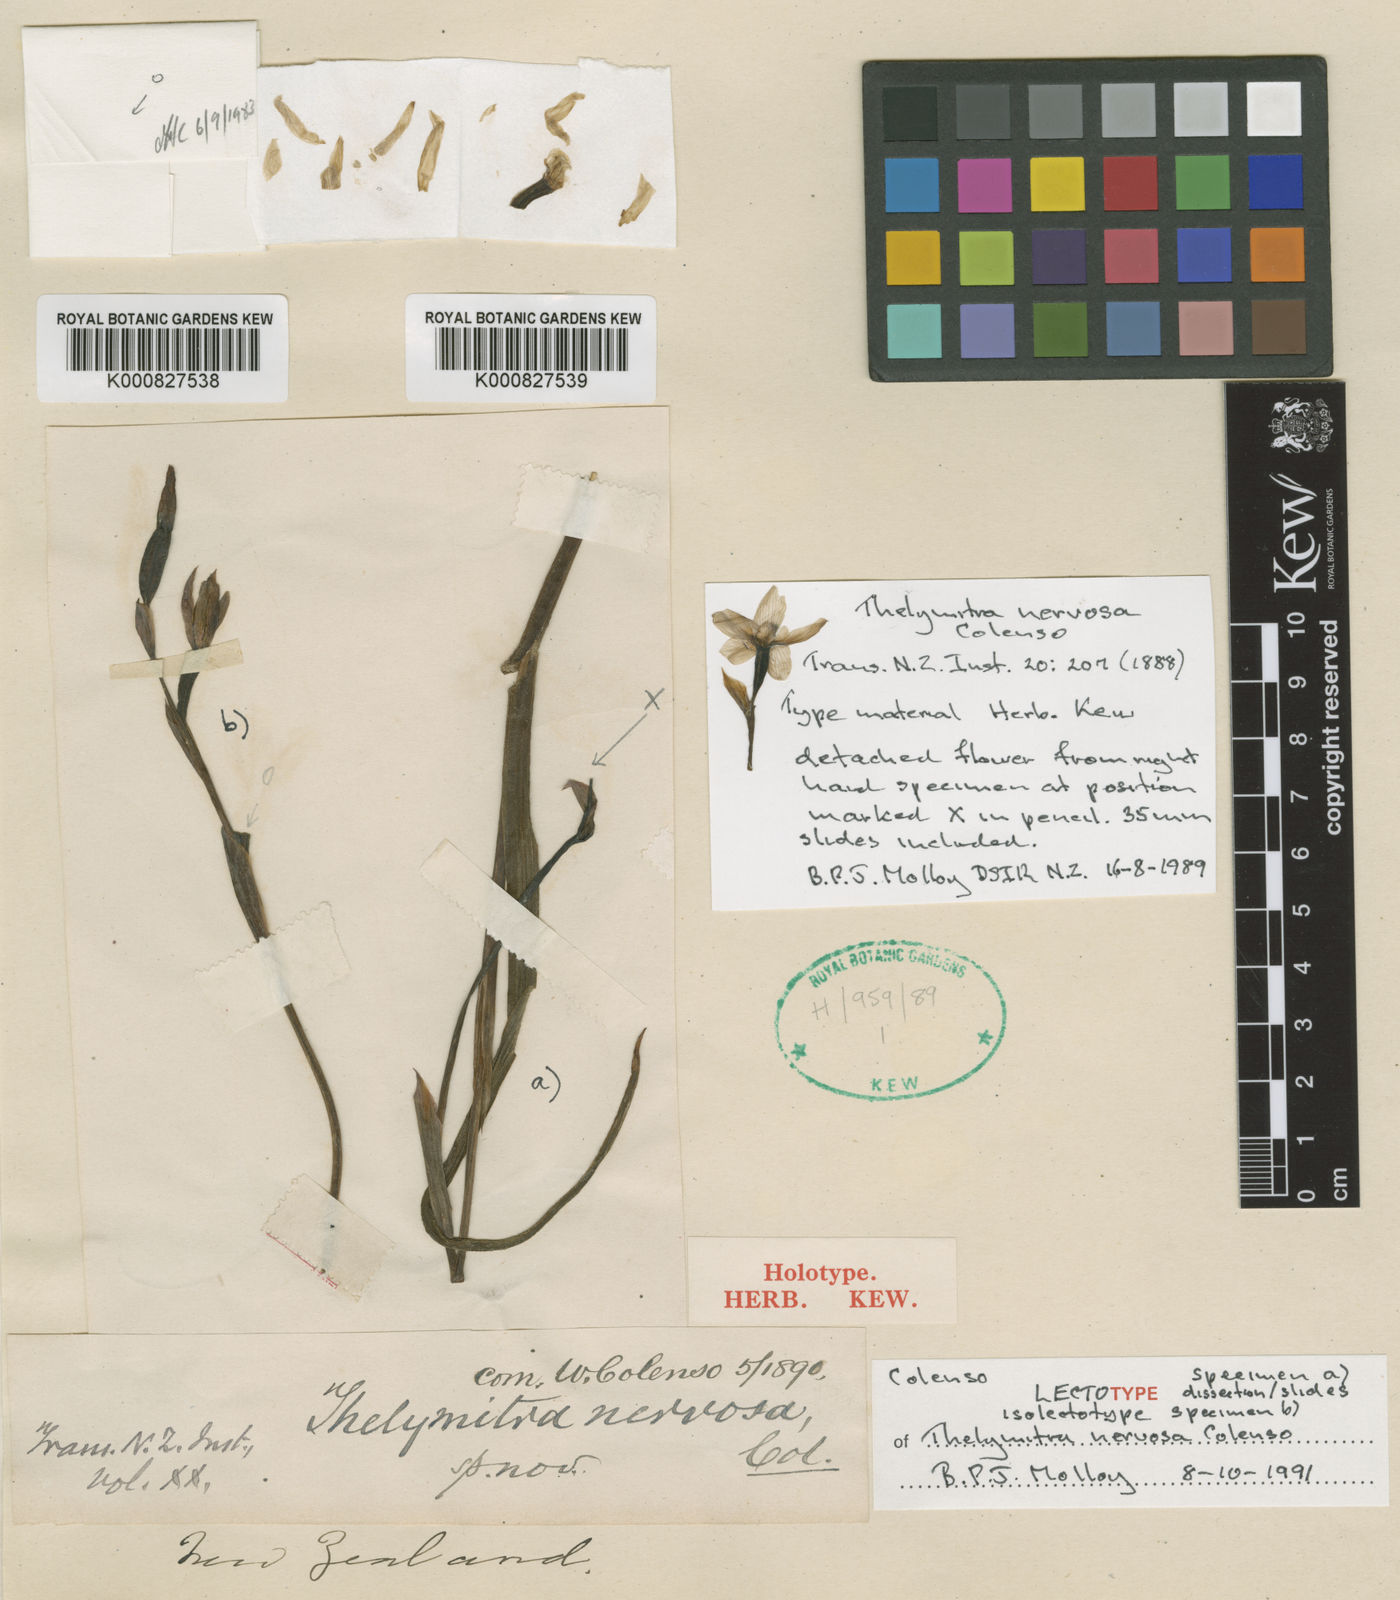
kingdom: Plantae
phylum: Tracheophyta
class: Liliopsida
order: Asparagales
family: Orchidaceae
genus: Thelymitra
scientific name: Thelymitra nervosa
